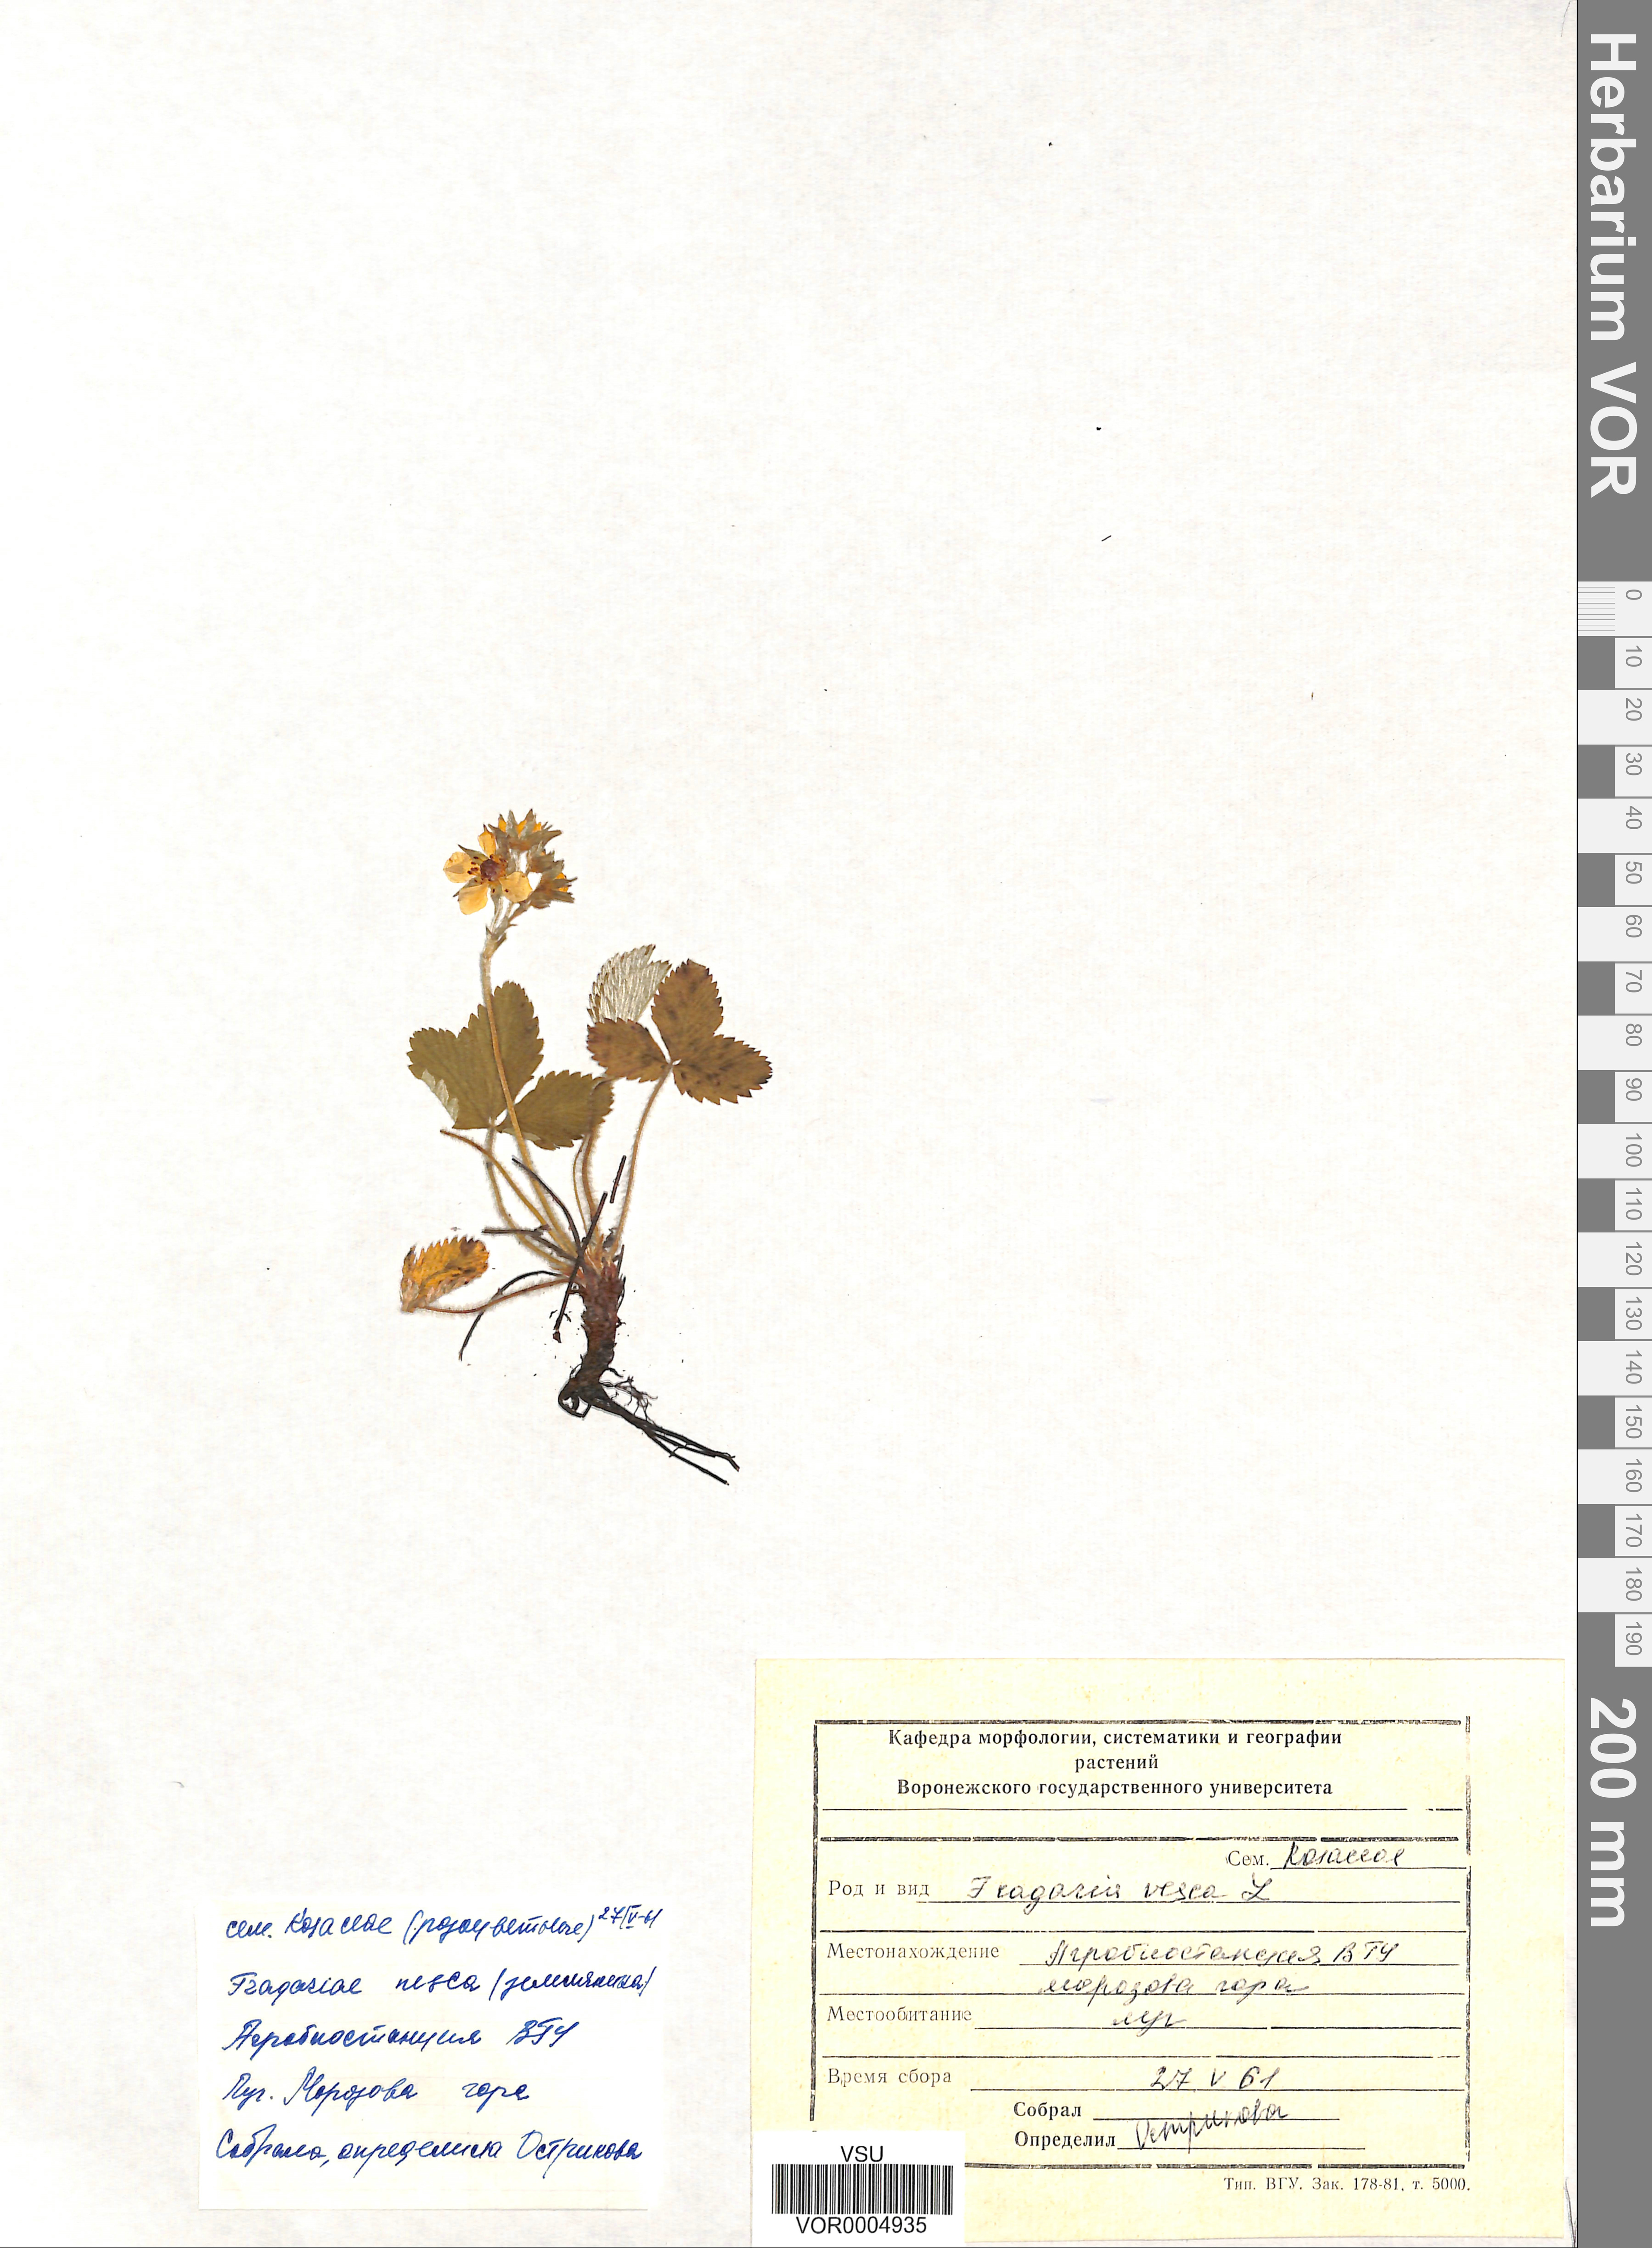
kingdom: Plantae
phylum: Tracheophyta
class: Magnoliopsida
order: Rosales
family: Rosaceae
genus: Fragaria
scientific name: Fragaria vesca
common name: Wild strawberry
